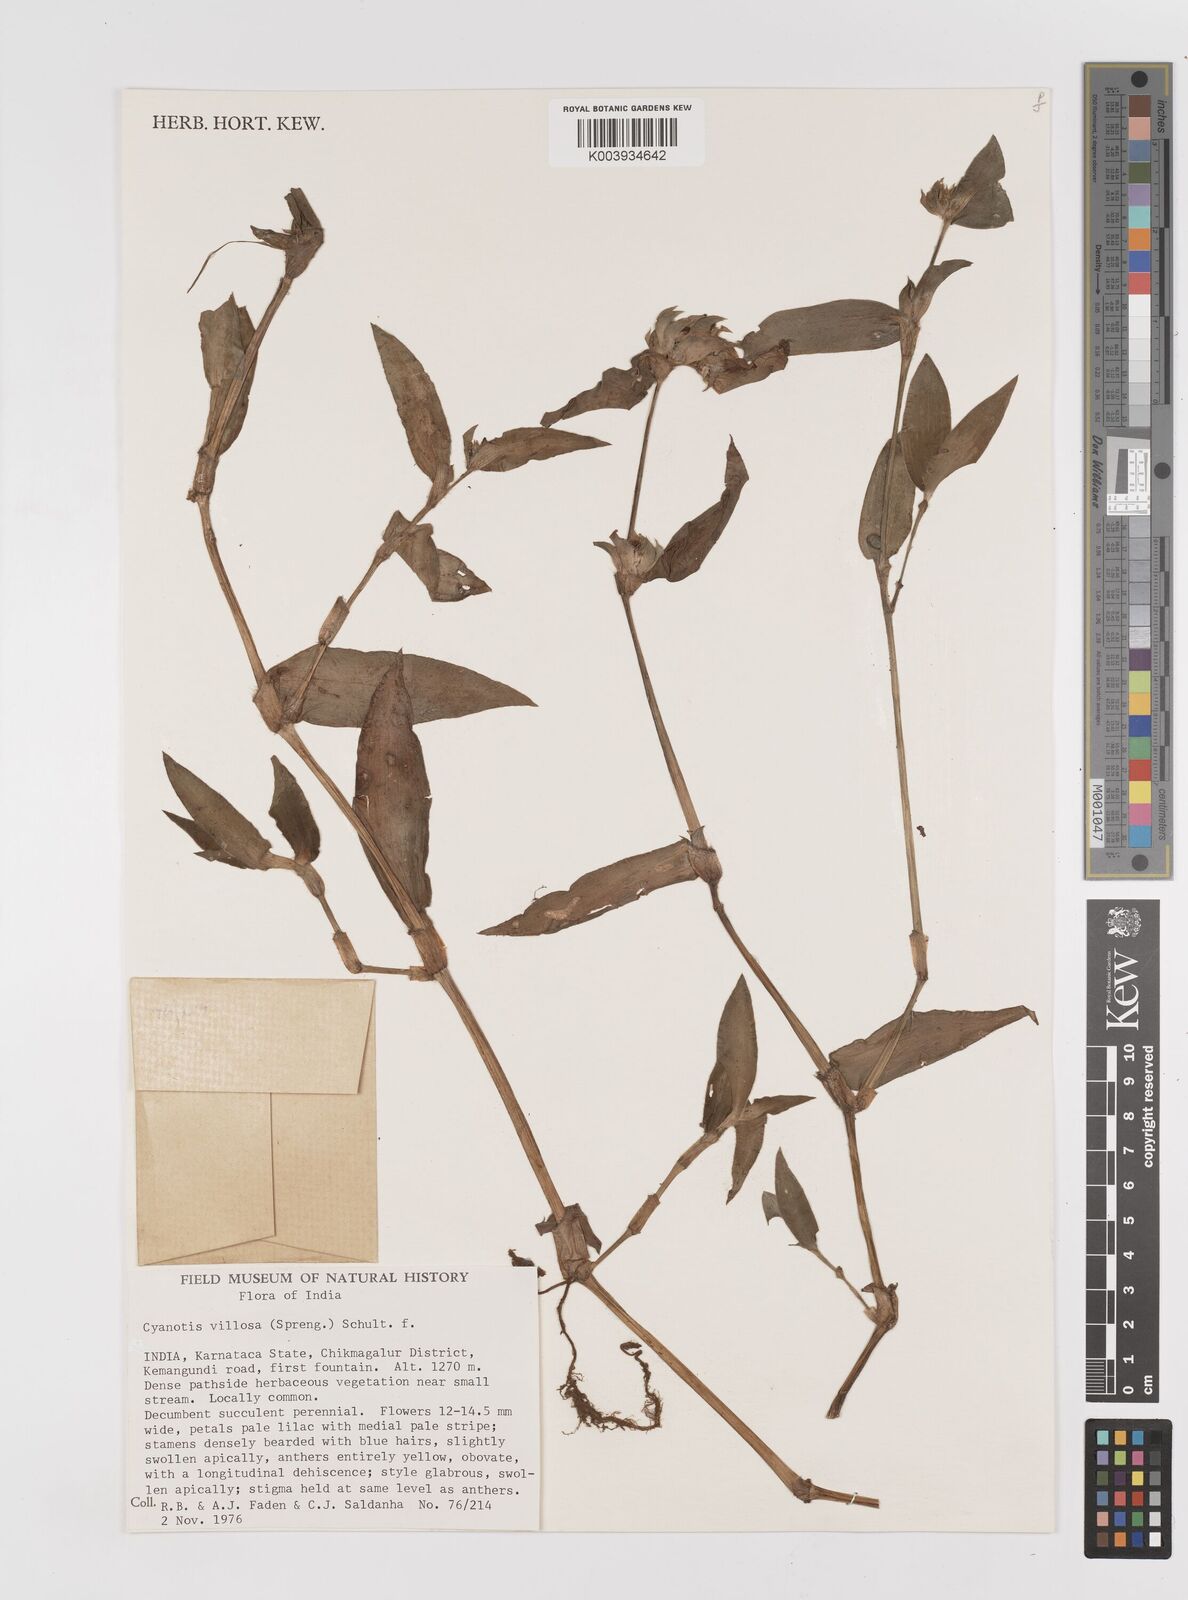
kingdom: Plantae
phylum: Tracheophyta
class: Liliopsida
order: Commelinales
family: Commelinaceae
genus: Cyanotis
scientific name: Cyanotis villosa
